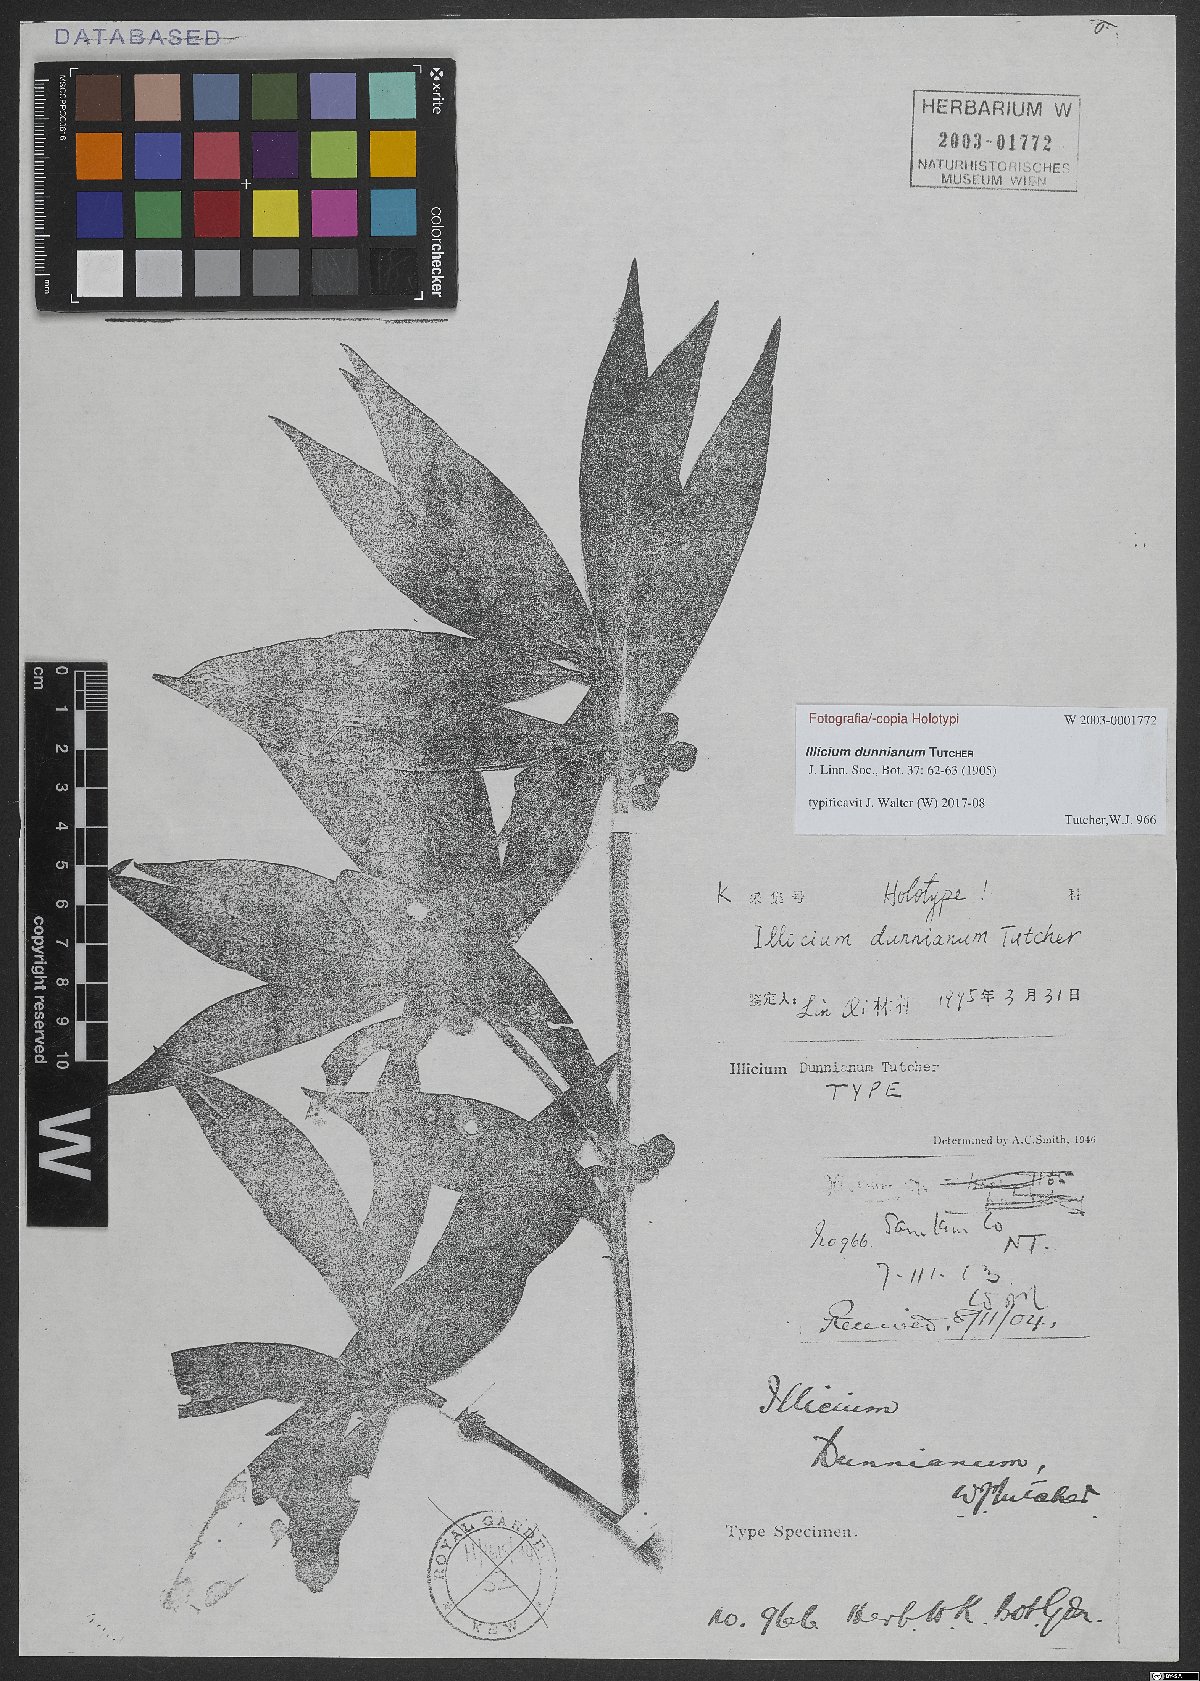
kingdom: Plantae
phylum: Tracheophyta
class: Magnoliopsida
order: Austrobaileyales
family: Schisandraceae
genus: Illicium
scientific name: Illicium dunnianum
